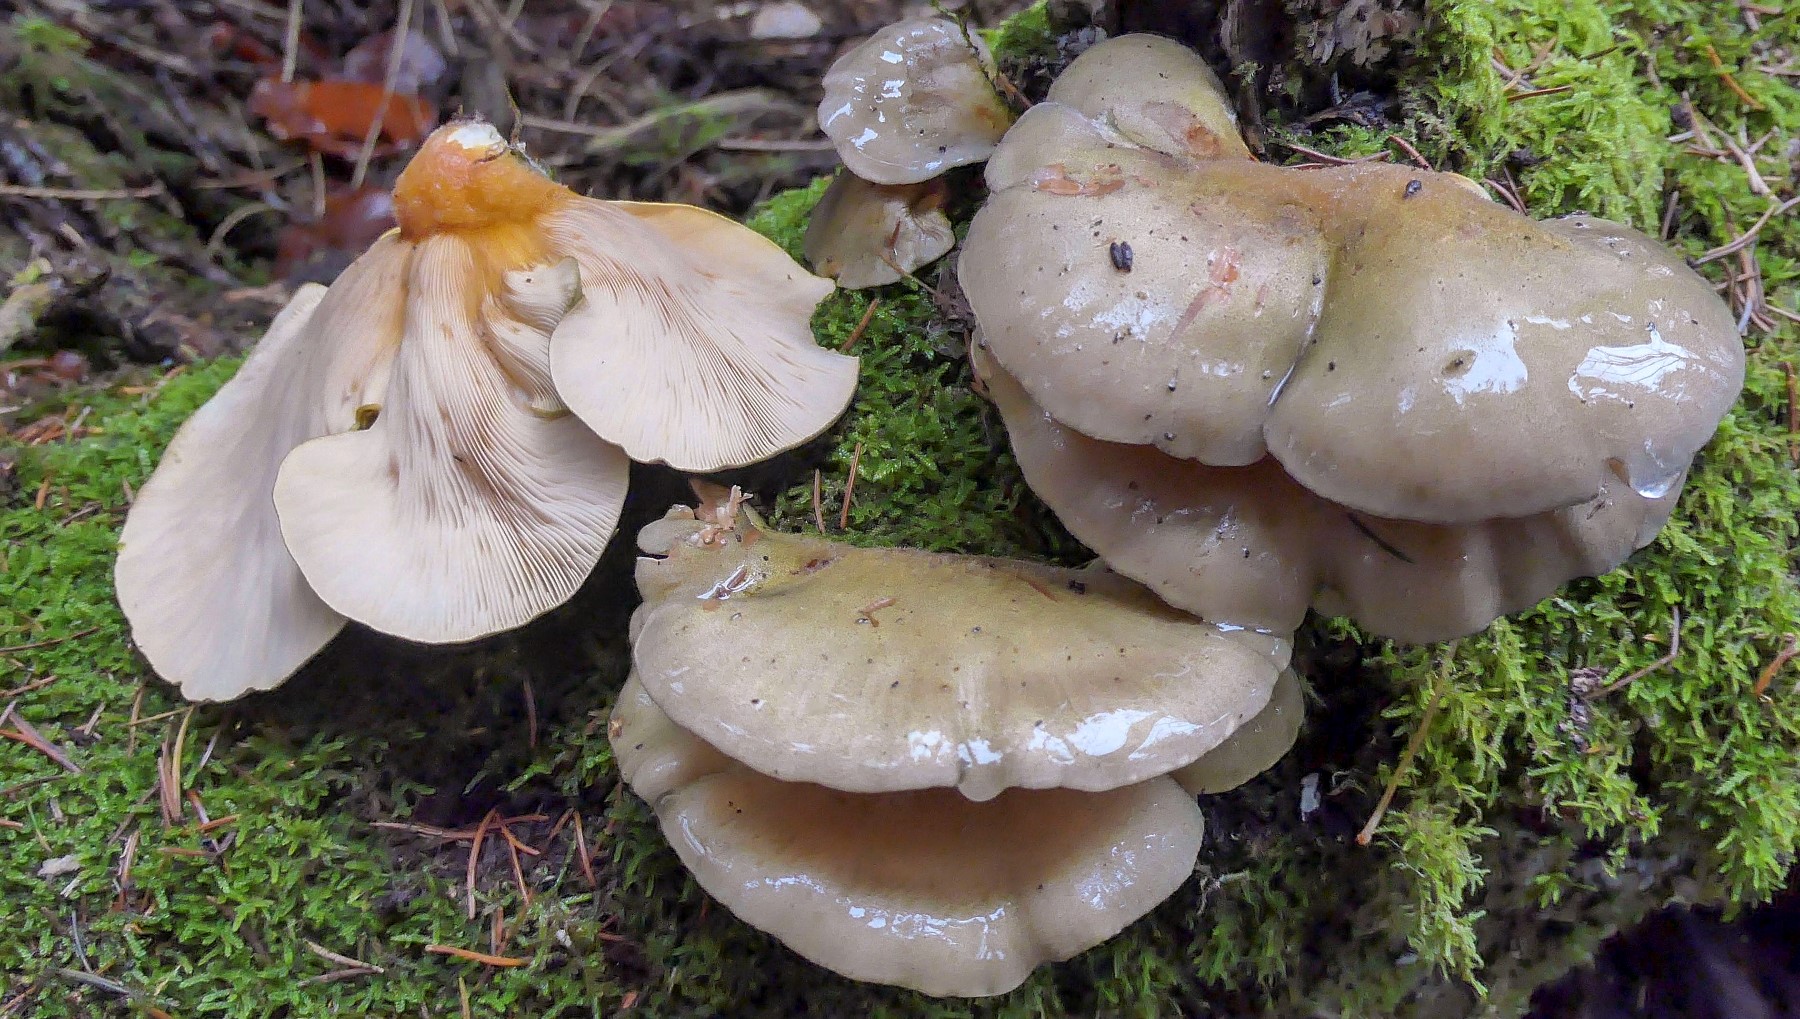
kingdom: Fungi
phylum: Basidiomycota
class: Agaricomycetes
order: Agaricales
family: Sarcomyxaceae
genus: Sarcomyxa
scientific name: Sarcomyxa serotina
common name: gummihat
